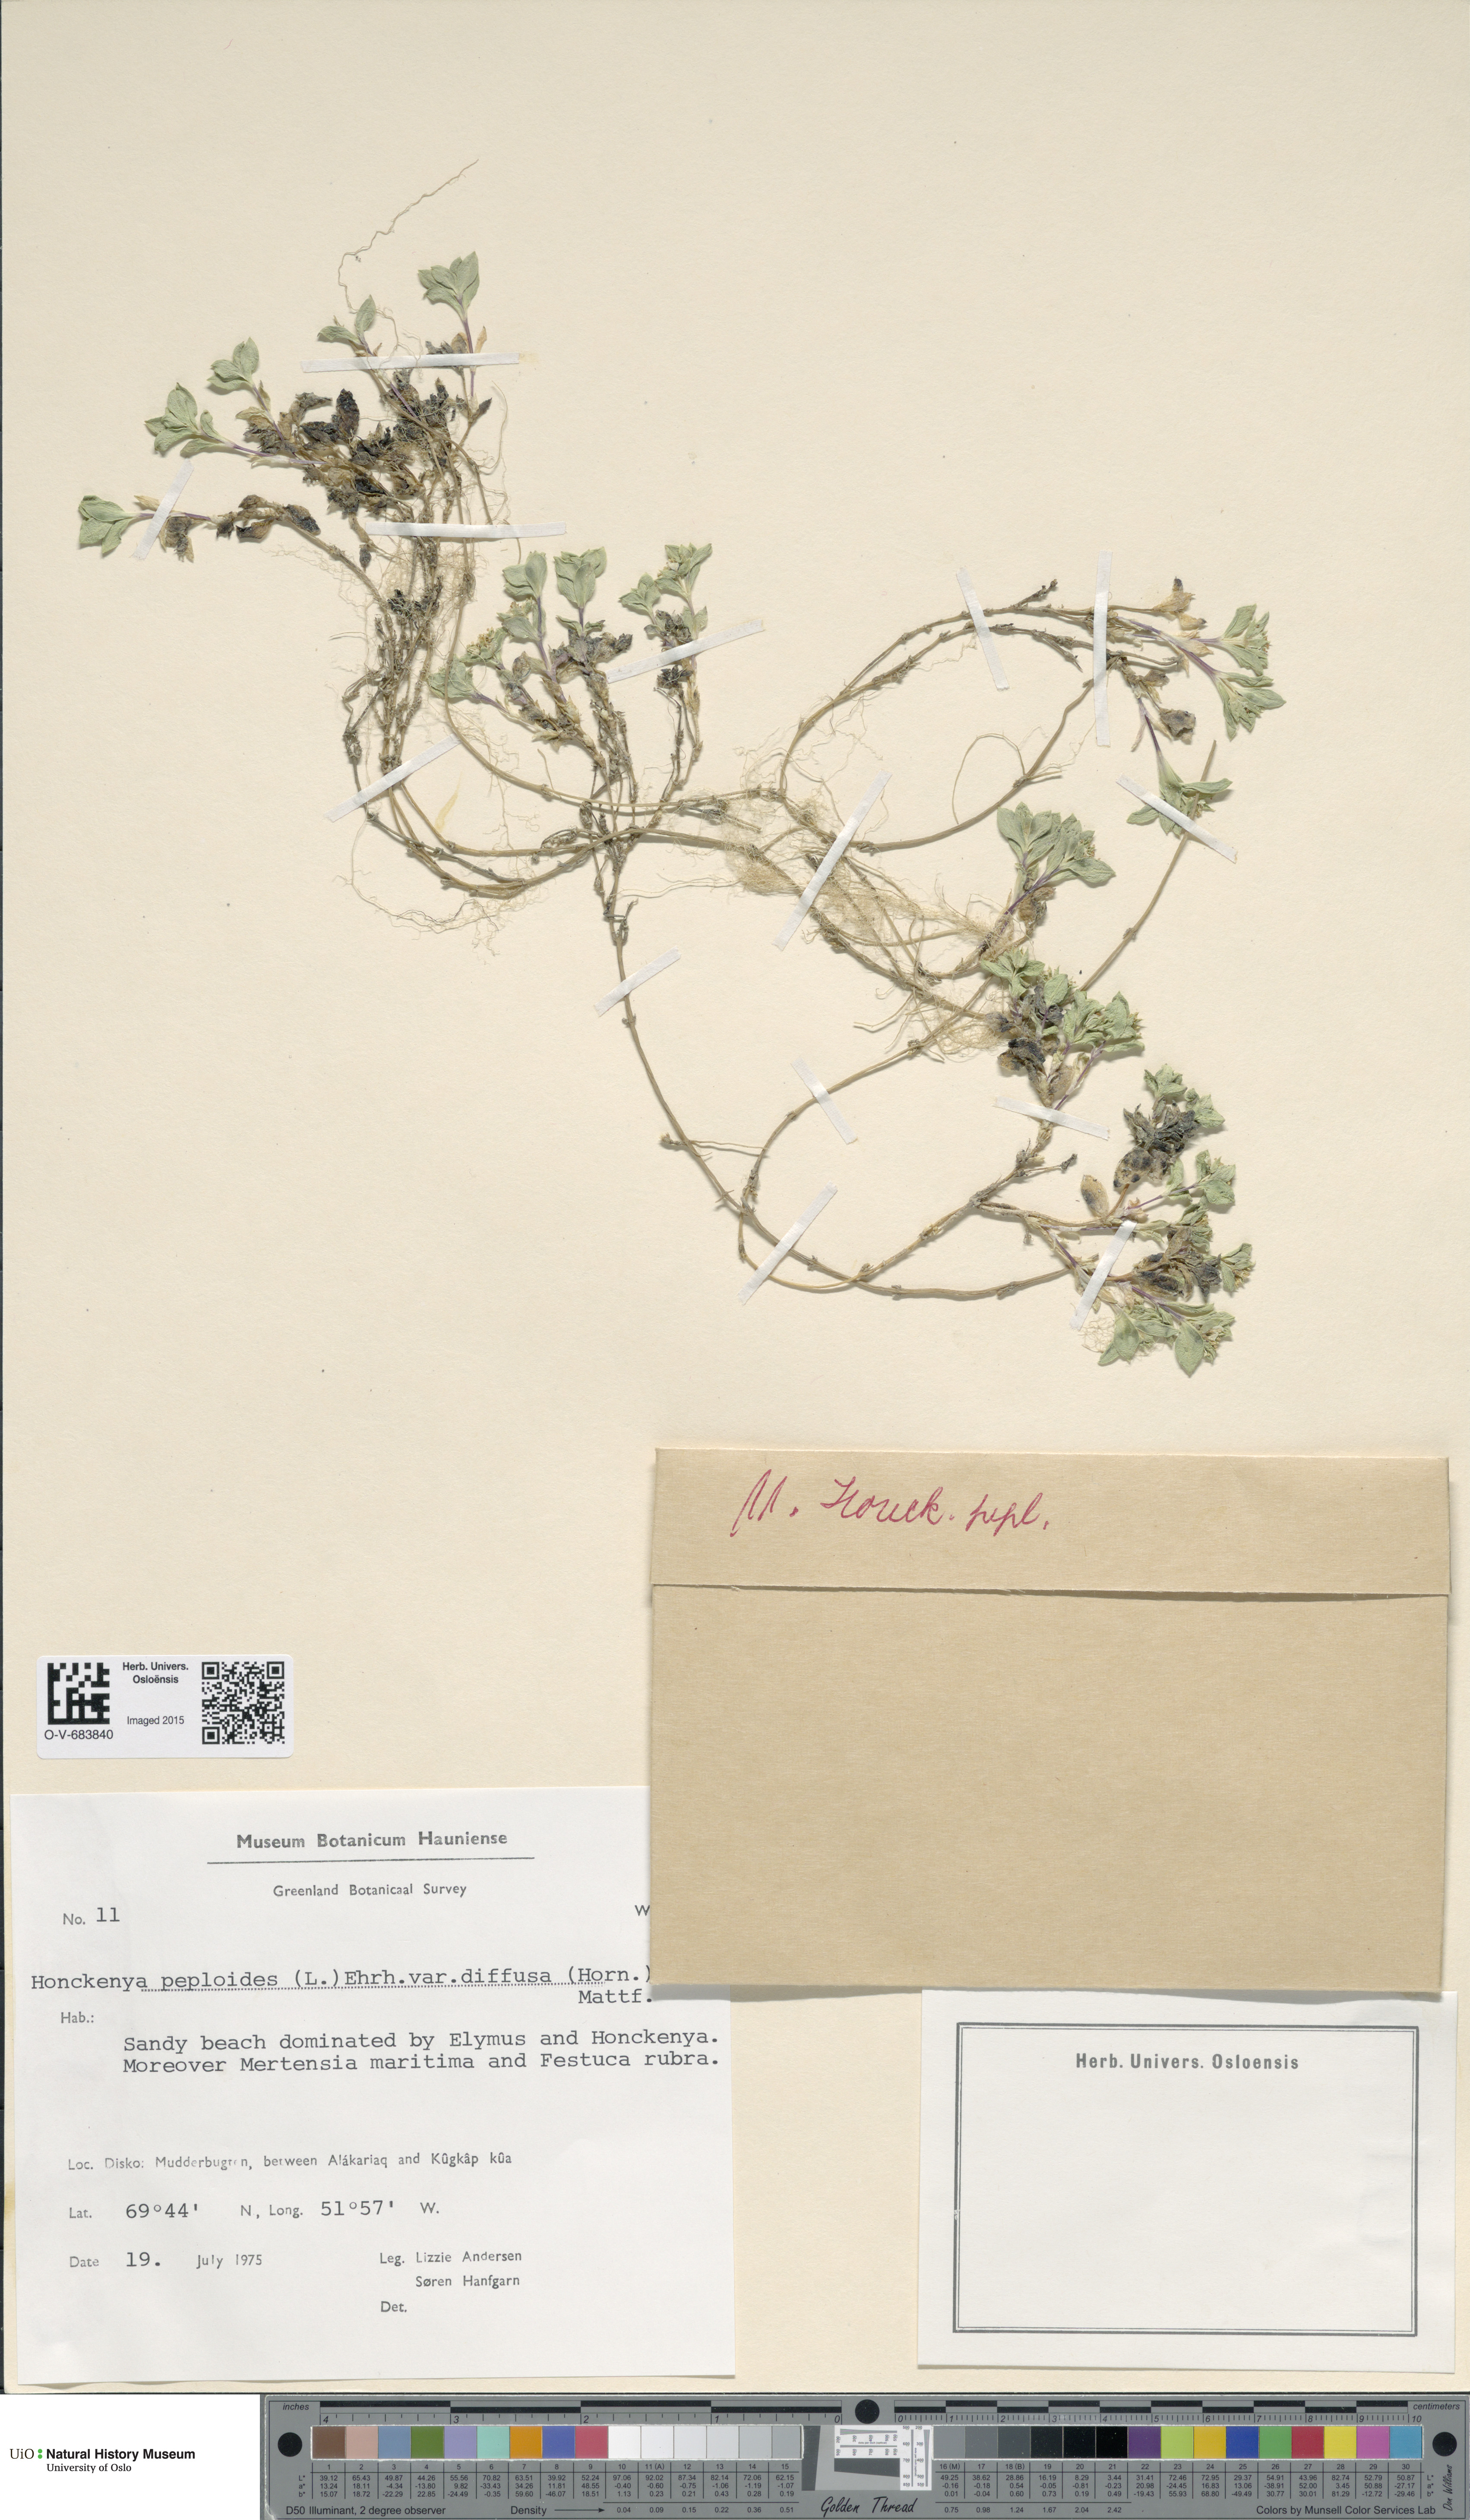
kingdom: Plantae
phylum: Tracheophyta
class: Magnoliopsida
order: Caryophyllales
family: Caryophyllaceae
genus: Honckenya
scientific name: Honckenya peploides
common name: Sea sandwort
